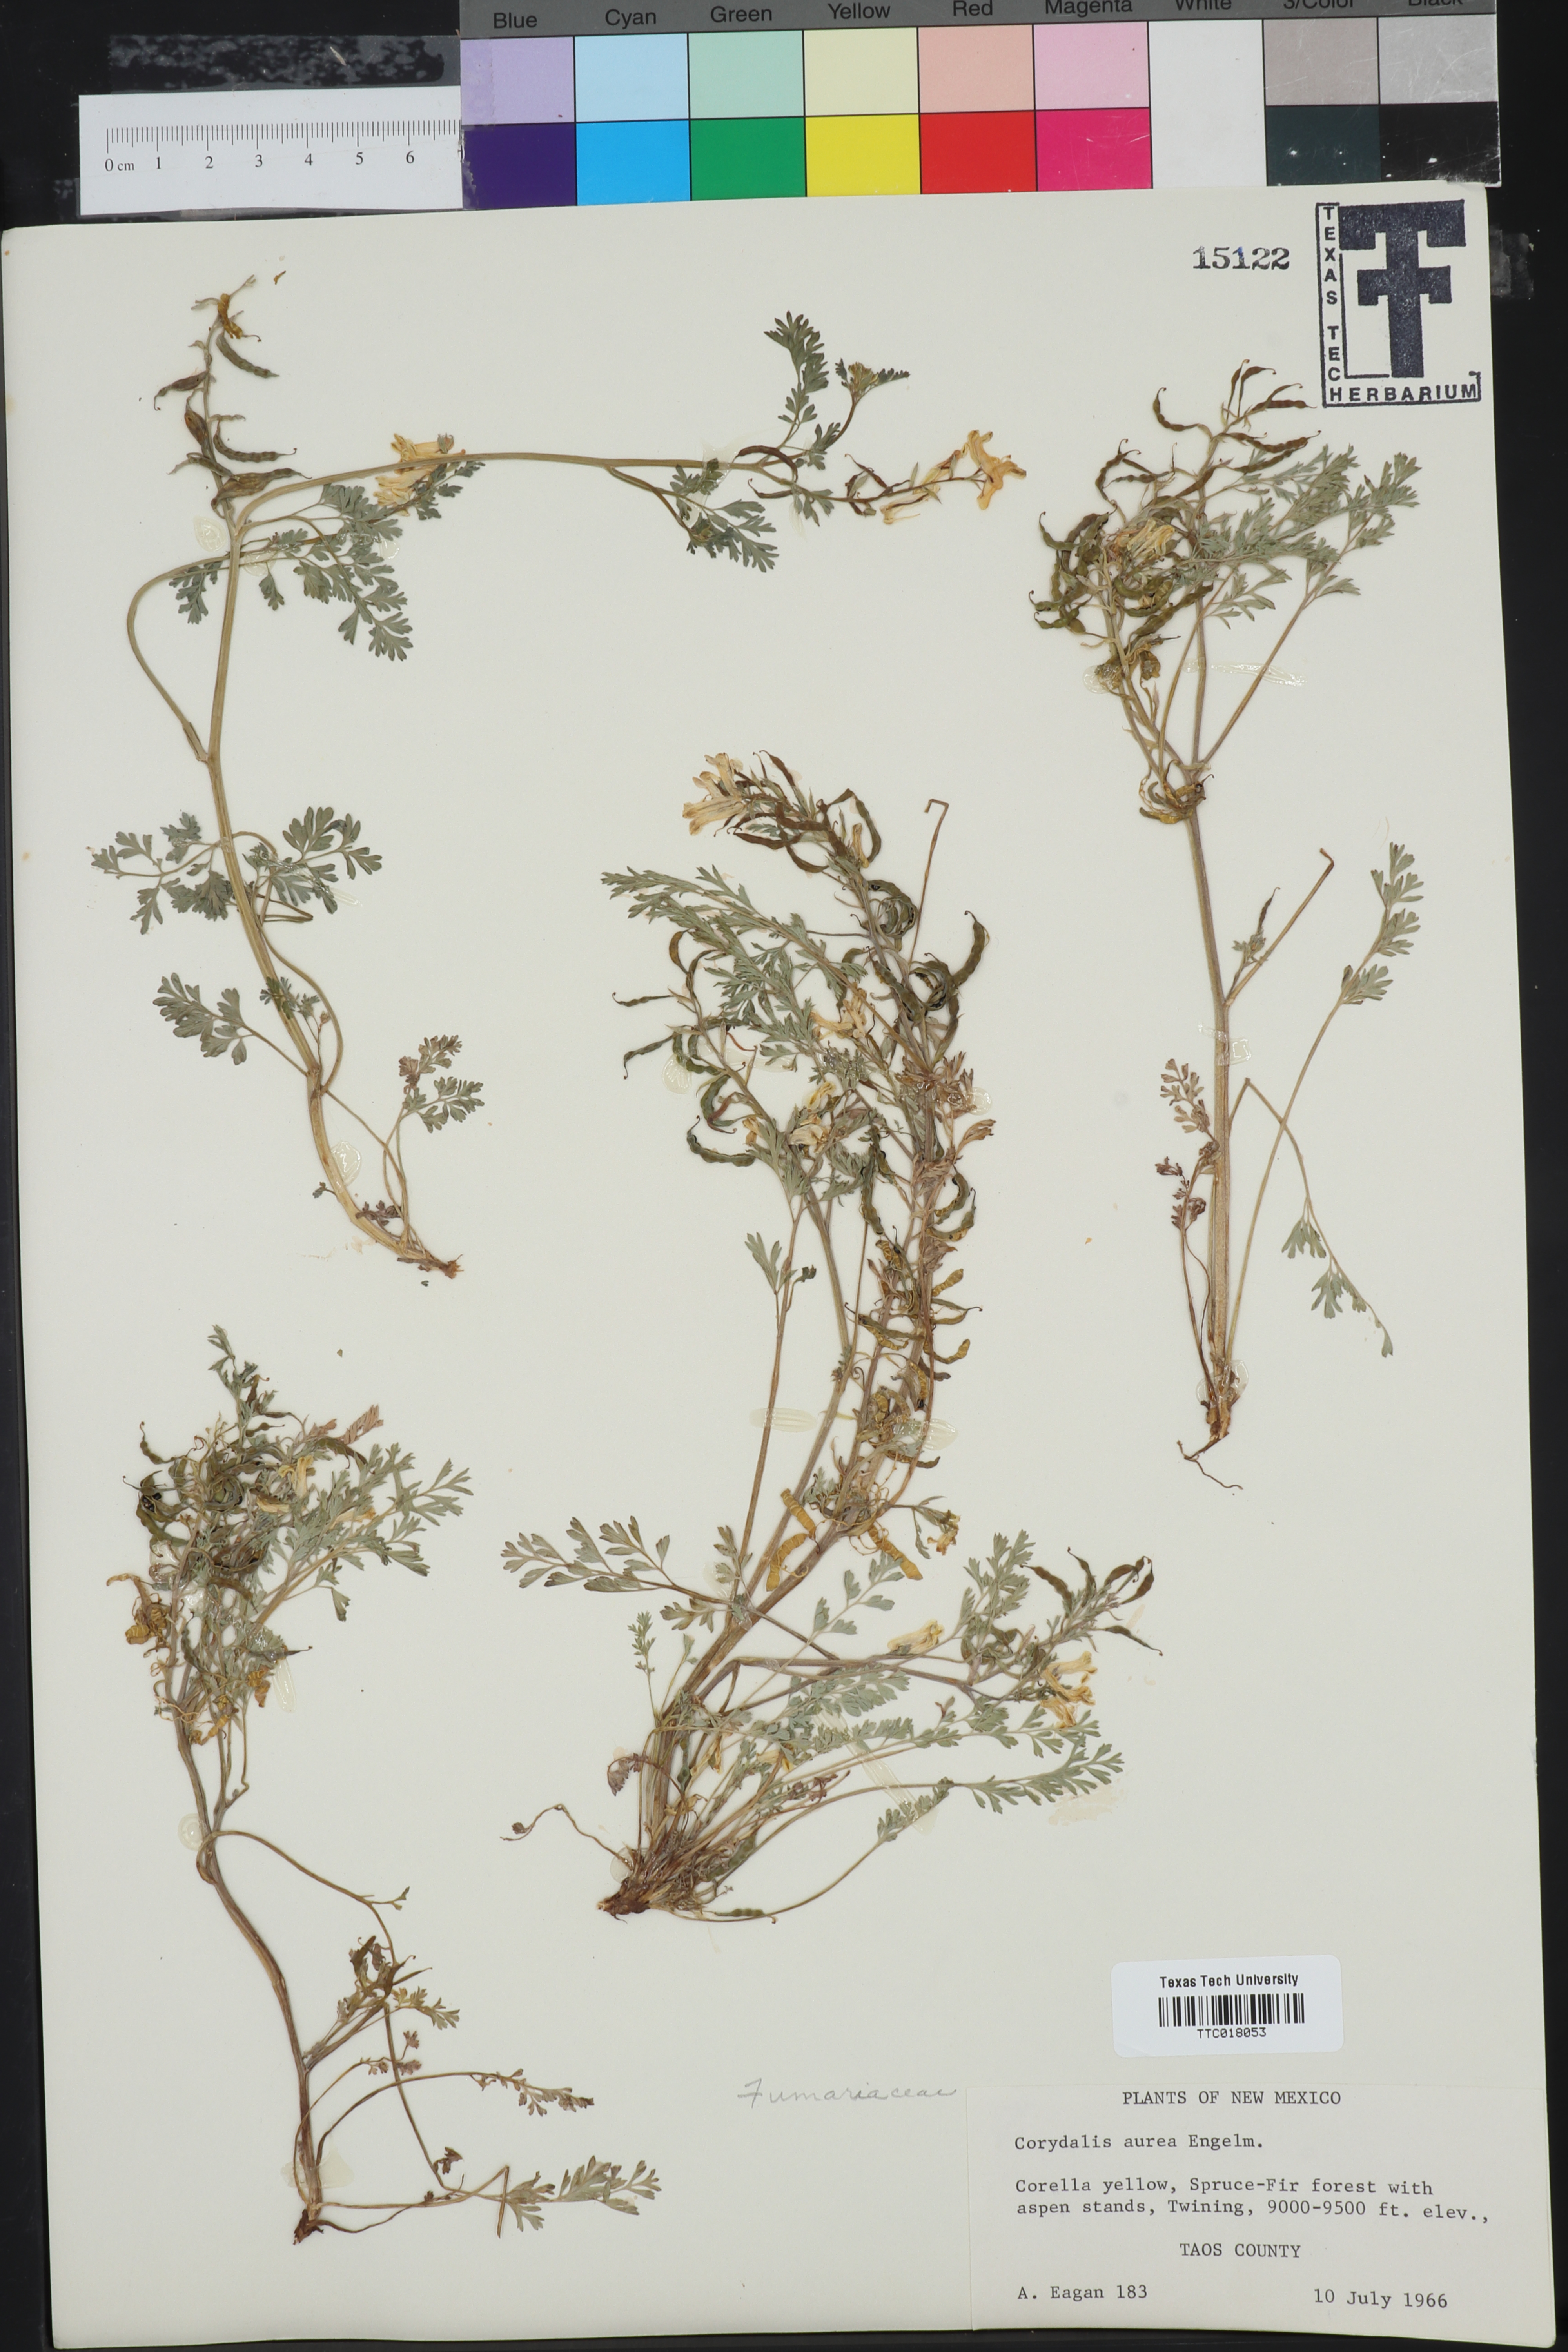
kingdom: Plantae
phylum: Tracheophyta
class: Magnoliopsida
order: Ranunculales
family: Papaveraceae
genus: Corydalis
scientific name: Corydalis aurea
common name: Golden corydalis
